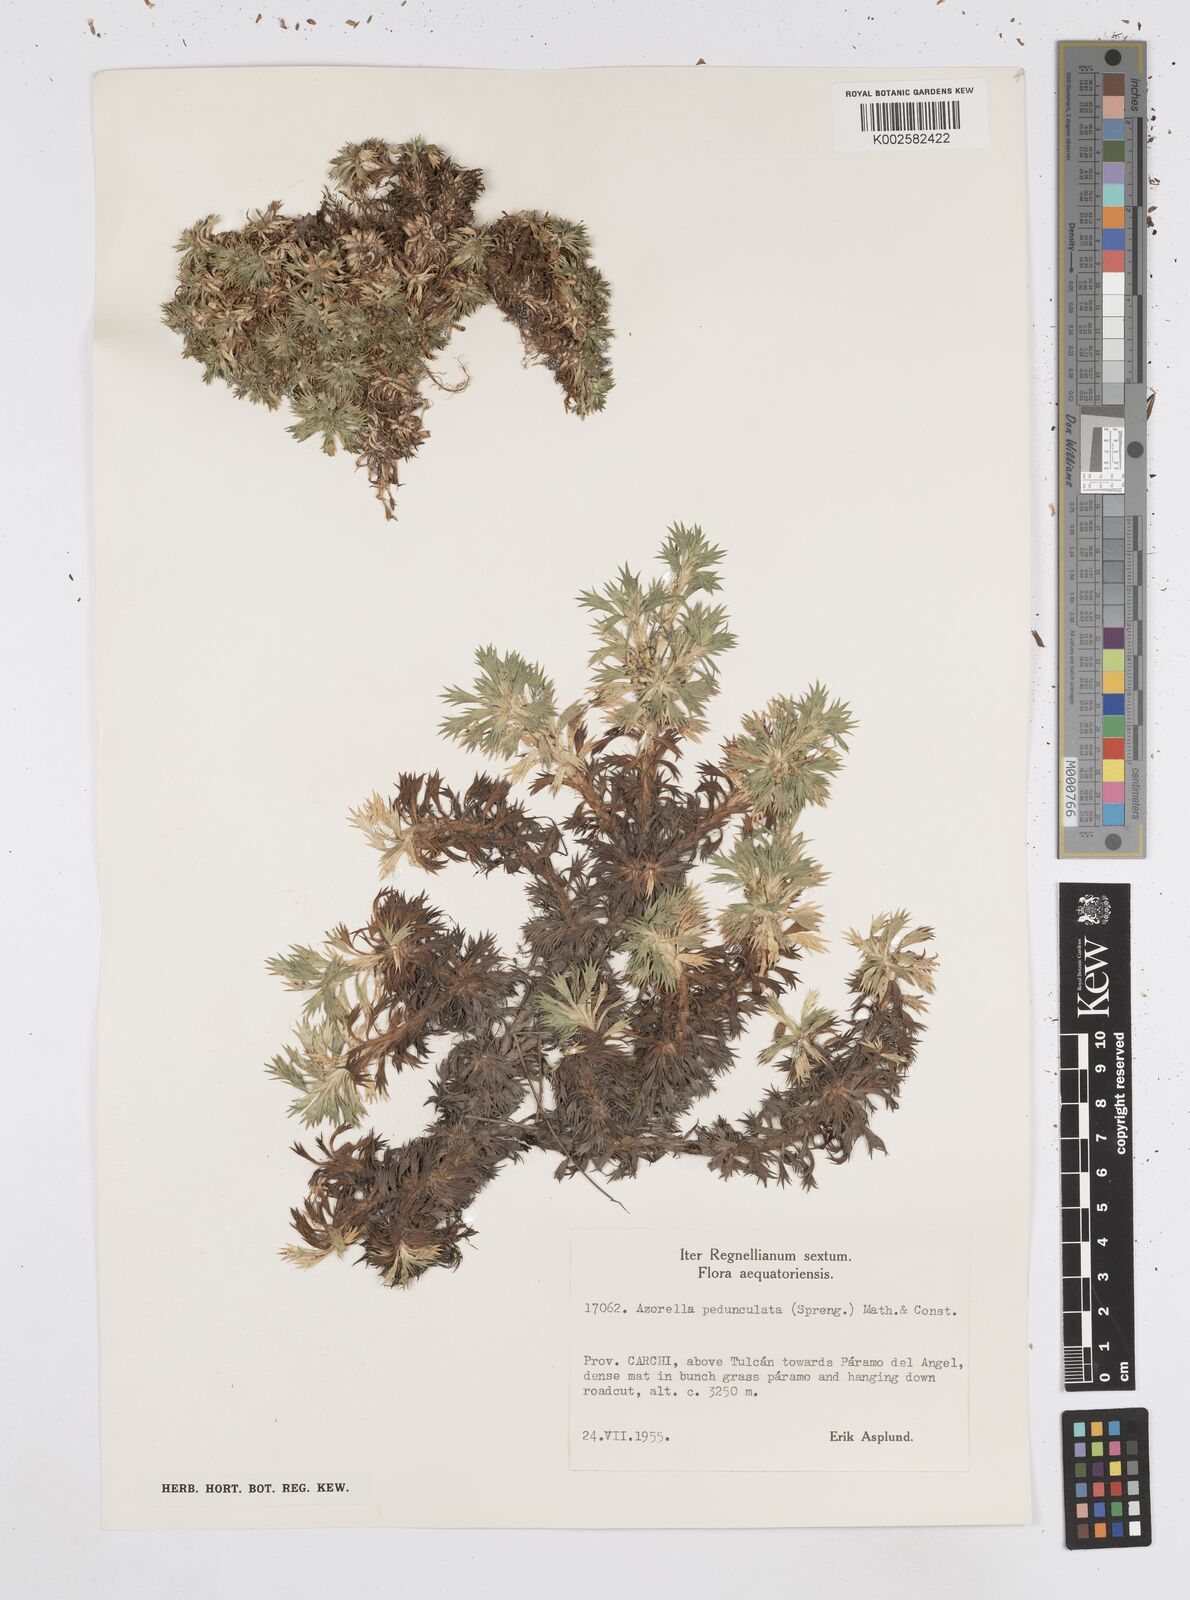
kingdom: Plantae
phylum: Tracheophyta
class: Magnoliopsida
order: Apiales
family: Apiaceae
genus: Azorella
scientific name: Azorella pedunculata
